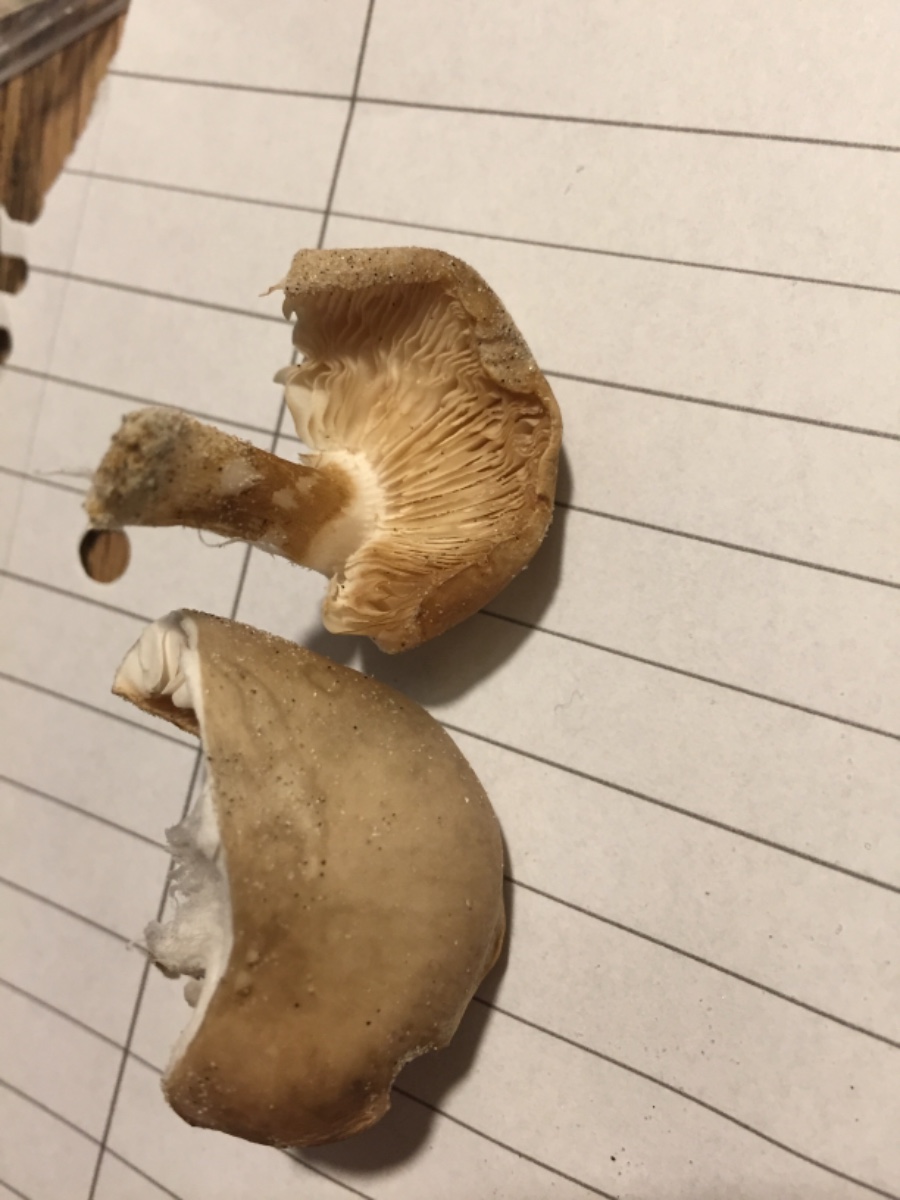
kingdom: Fungi
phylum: Basidiomycota
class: Agaricomycetes
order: Agaricales
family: Tricholomataceae
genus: Melanoleuca
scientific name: Melanoleuca
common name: munkehat
